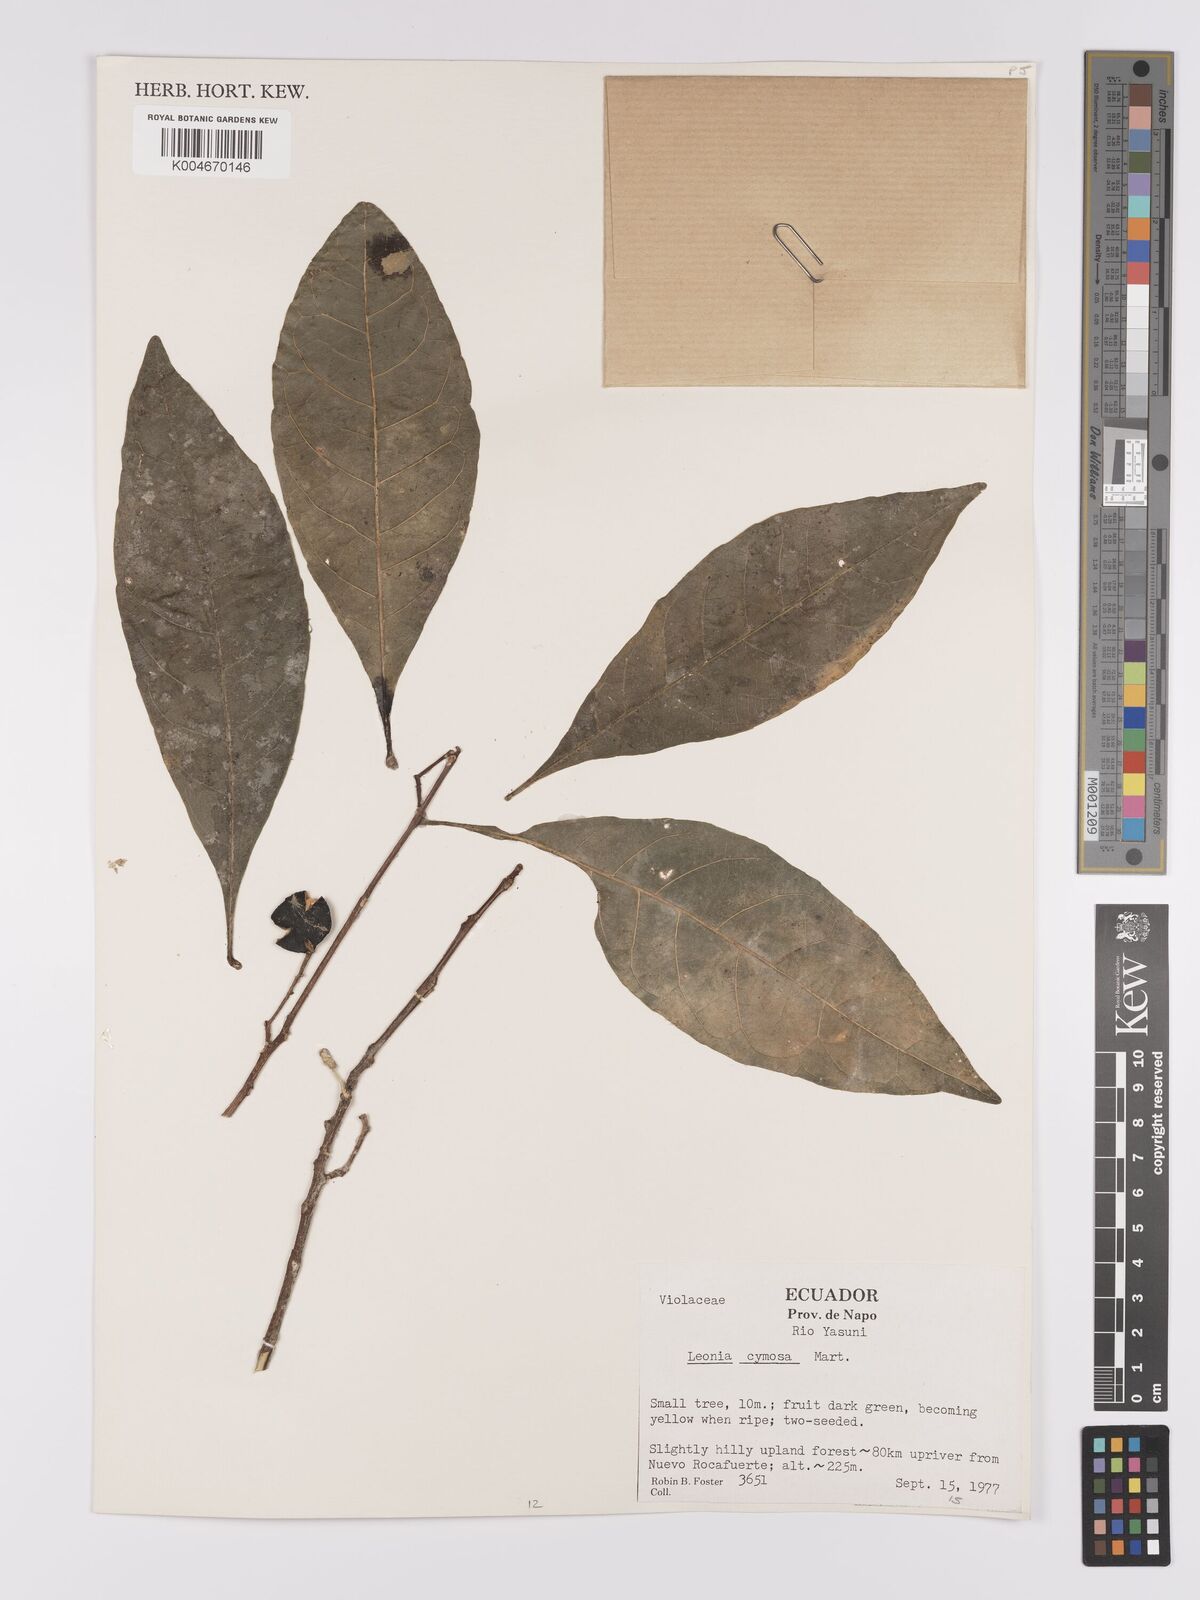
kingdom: Plantae
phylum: Tracheophyta
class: Magnoliopsida
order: Malpighiales
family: Violaceae
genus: Leonia
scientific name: Leonia cymosa
